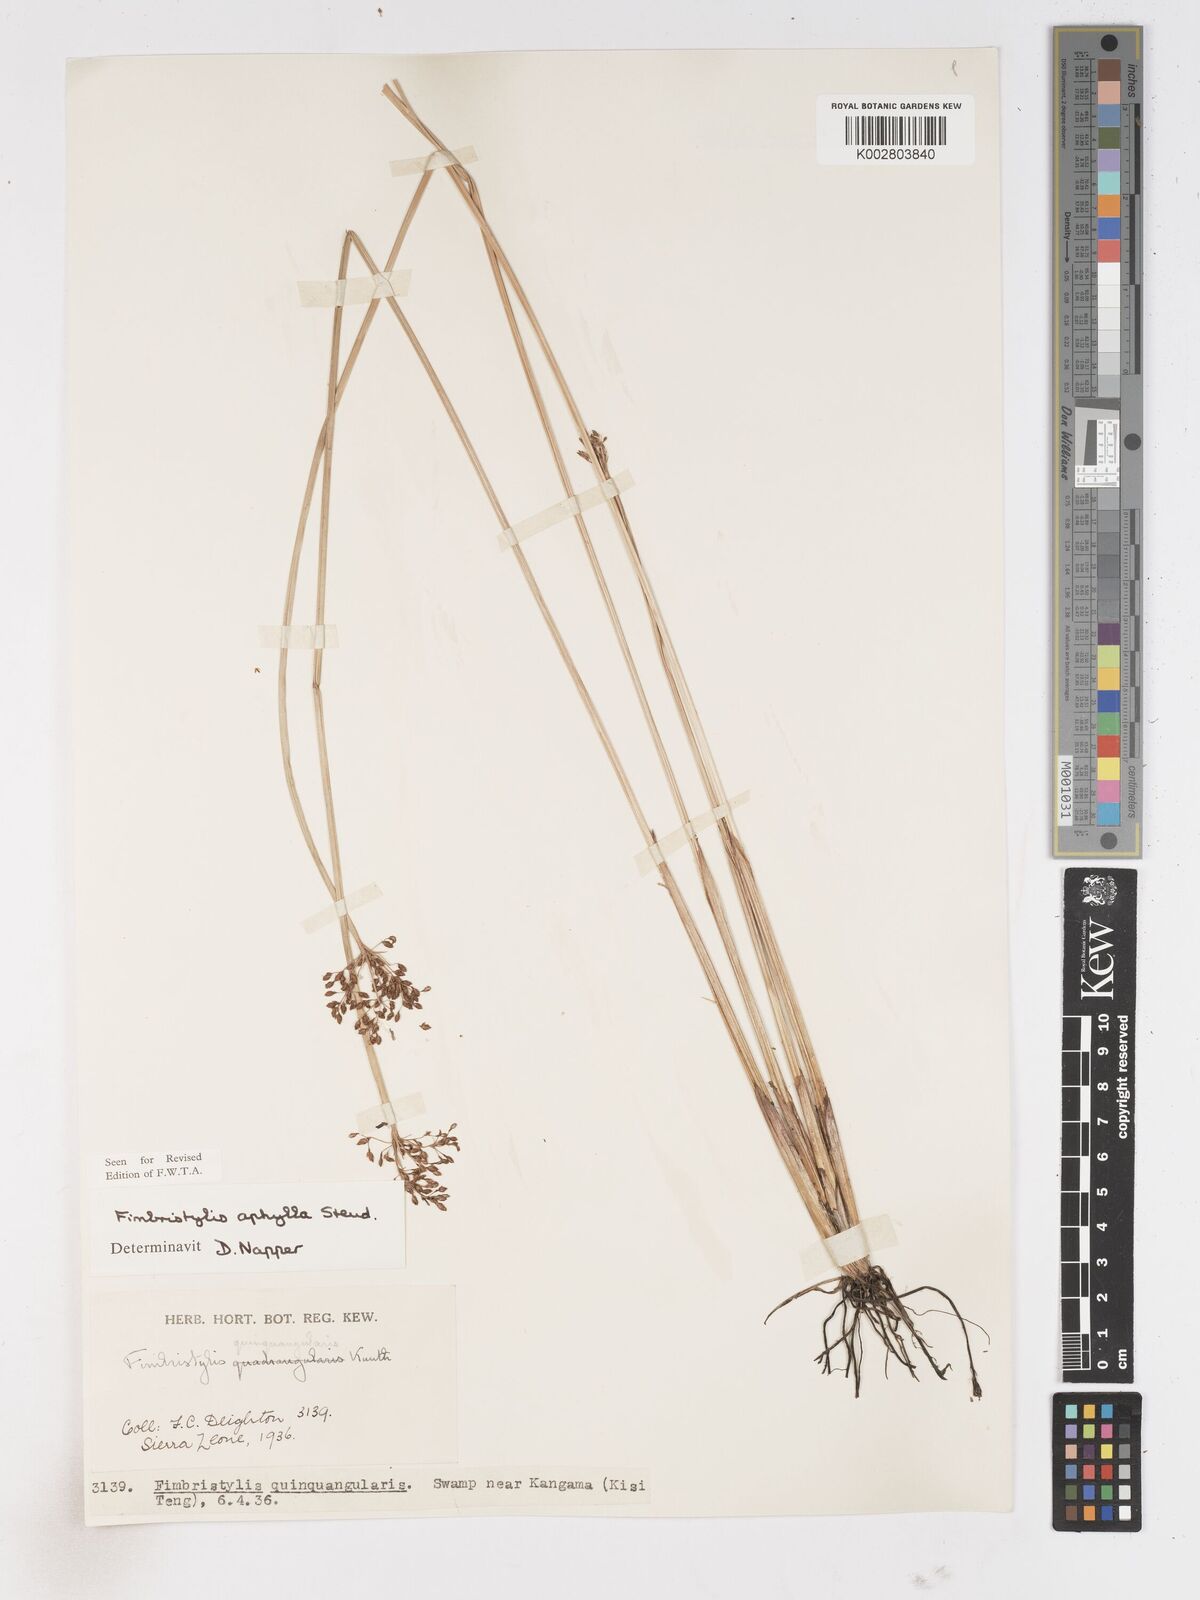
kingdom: Plantae
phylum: Tracheophyta
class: Liliopsida
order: Poales
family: Cyperaceae
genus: Fimbristylis
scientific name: Fimbristylis aphylla
